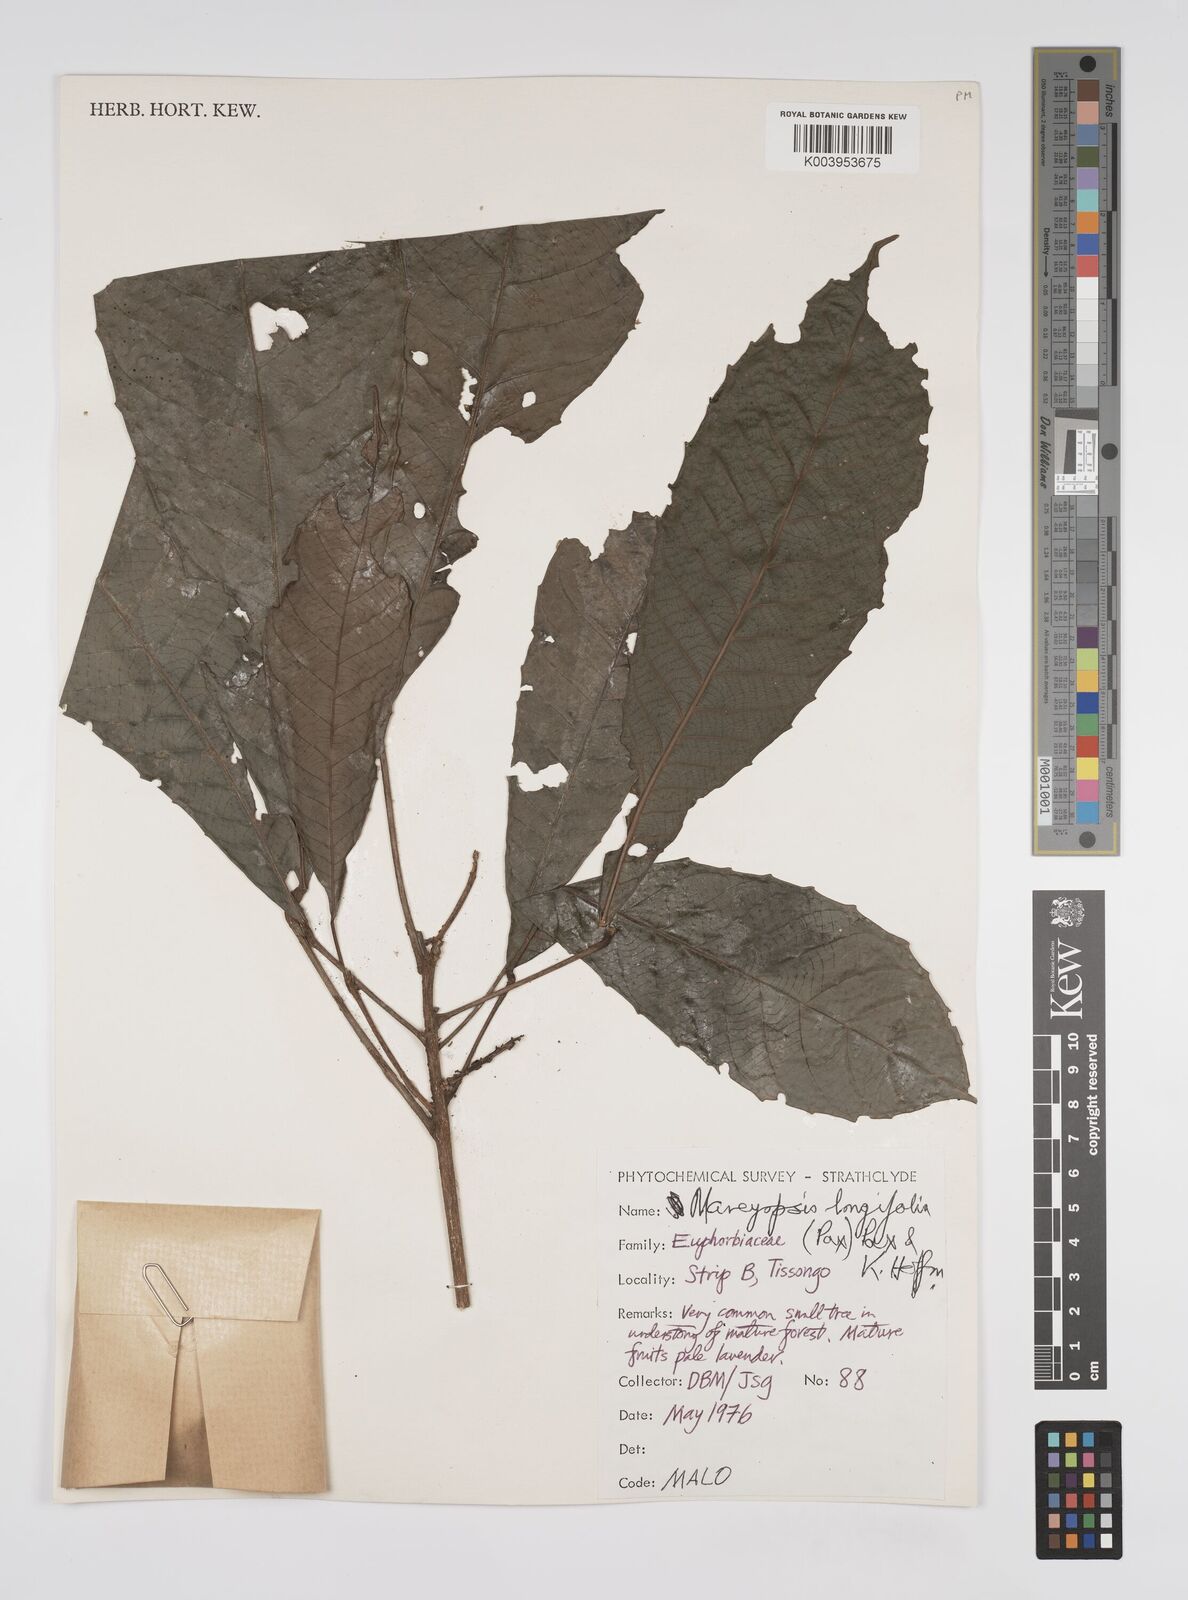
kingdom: Plantae
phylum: Tracheophyta
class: Magnoliopsida
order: Malpighiales
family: Euphorbiaceae
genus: Mareyopsis
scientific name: Mareyopsis longifolia
